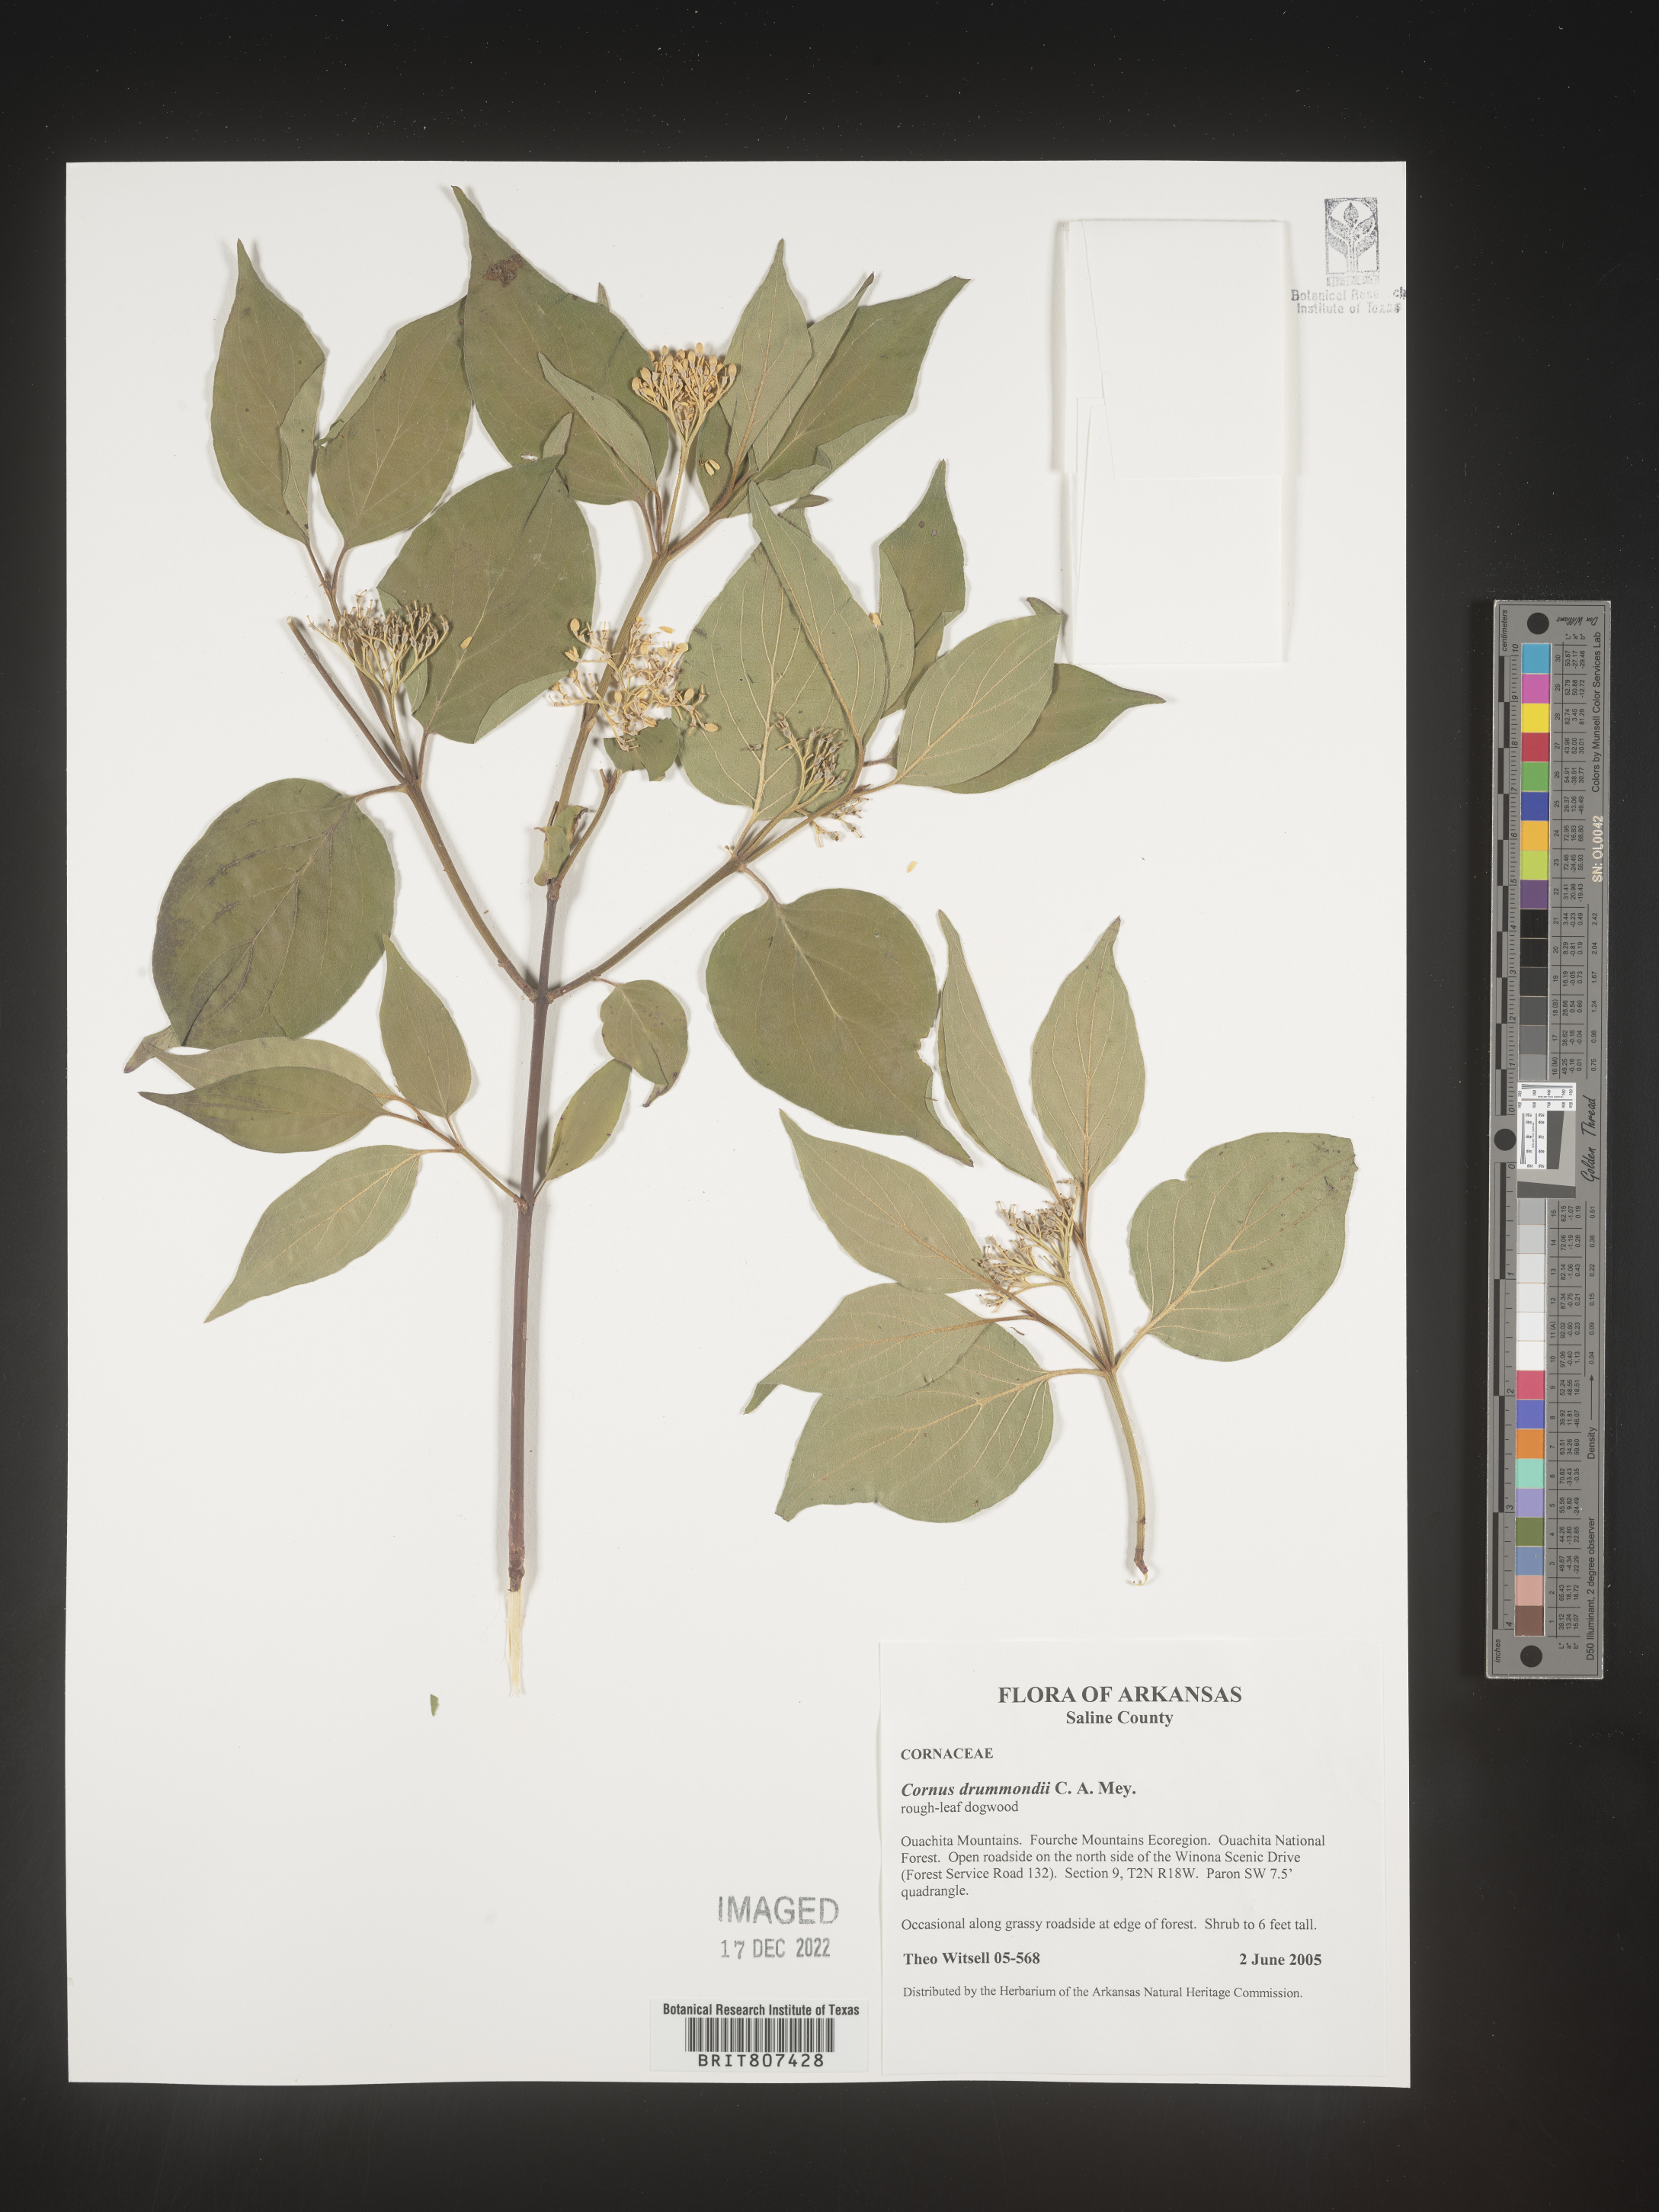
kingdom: Plantae
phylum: Tracheophyta
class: Magnoliopsida
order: Cornales
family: Cornaceae
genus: Cornus
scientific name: Cornus drummondii
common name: Rough-leaf dogwood
